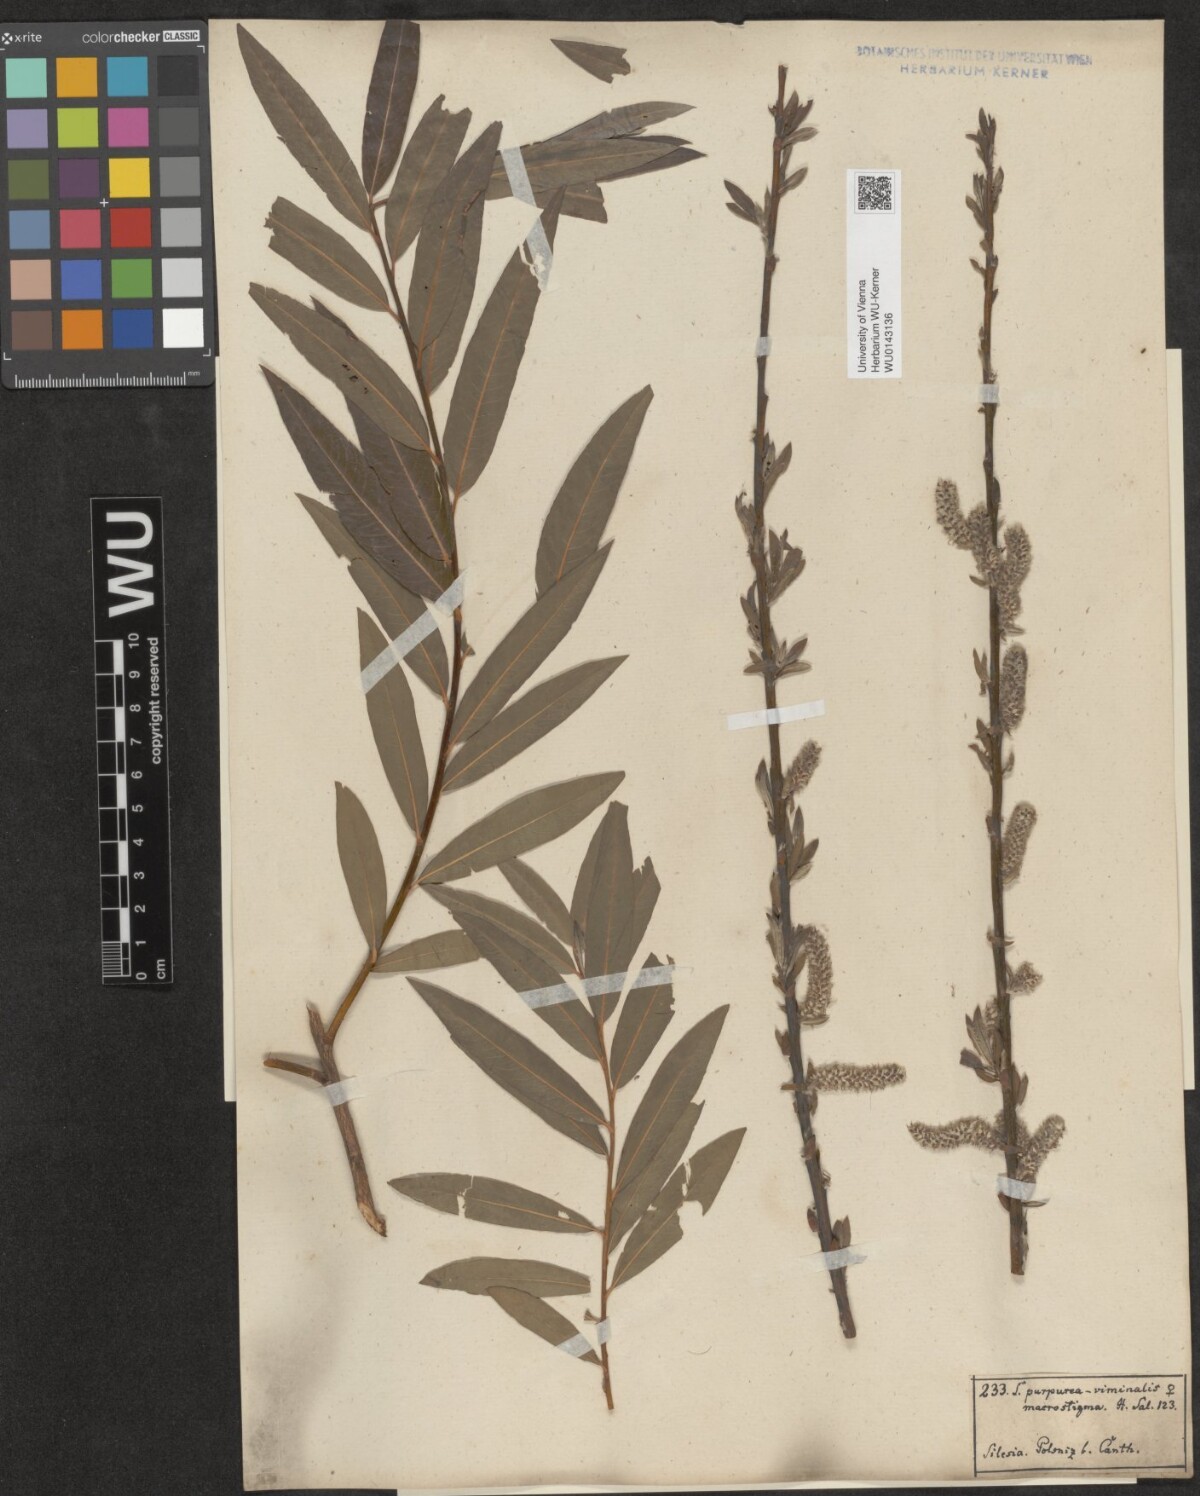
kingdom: Plantae
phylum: Tracheophyta
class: Magnoliopsida
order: Malpighiales
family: Salicaceae
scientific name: Salicaceae
